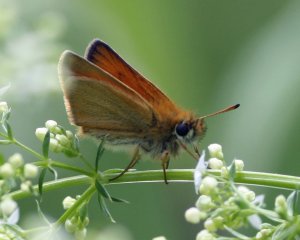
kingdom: Animalia
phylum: Arthropoda
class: Insecta
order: Lepidoptera
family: Hesperiidae
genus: Thymelicus
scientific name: Thymelicus lineola
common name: European Skipper
